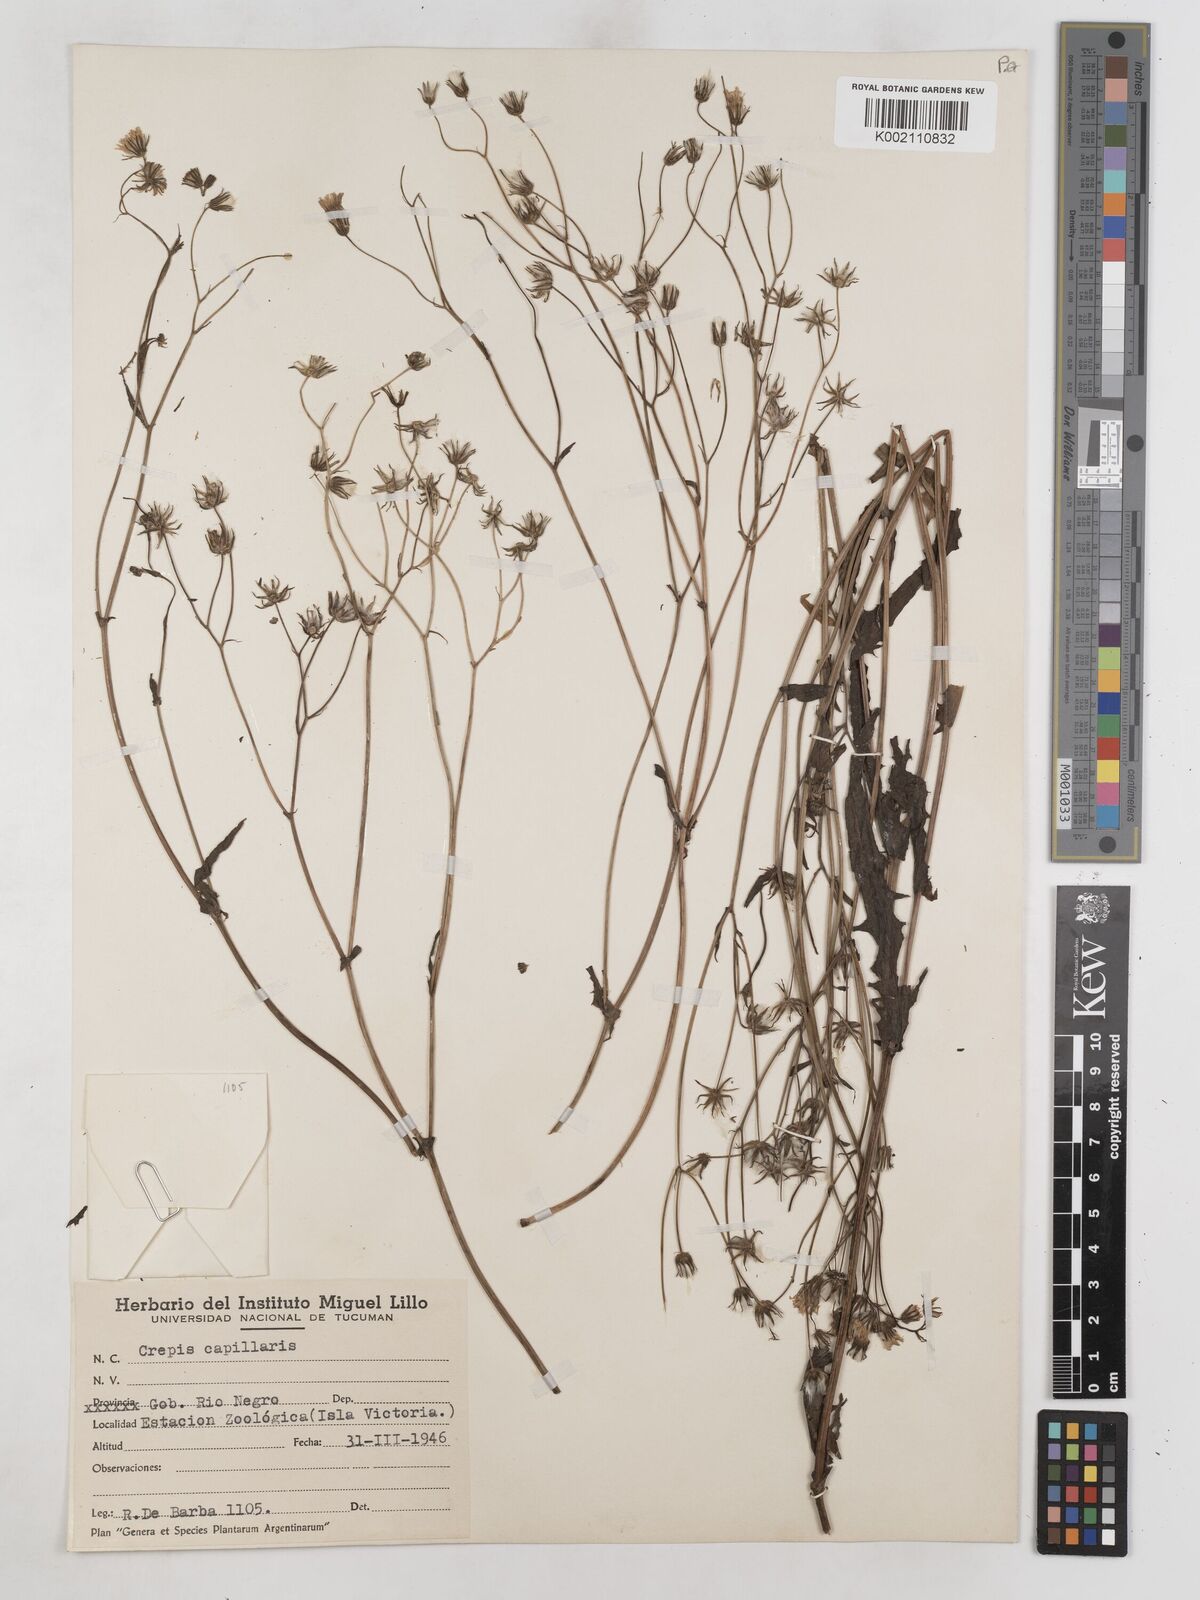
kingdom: Plantae
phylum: Tracheophyta
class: Magnoliopsida
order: Asterales
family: Asteraceae
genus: Crepis
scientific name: Crepis capillaris
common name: Smooth hawksbeard
